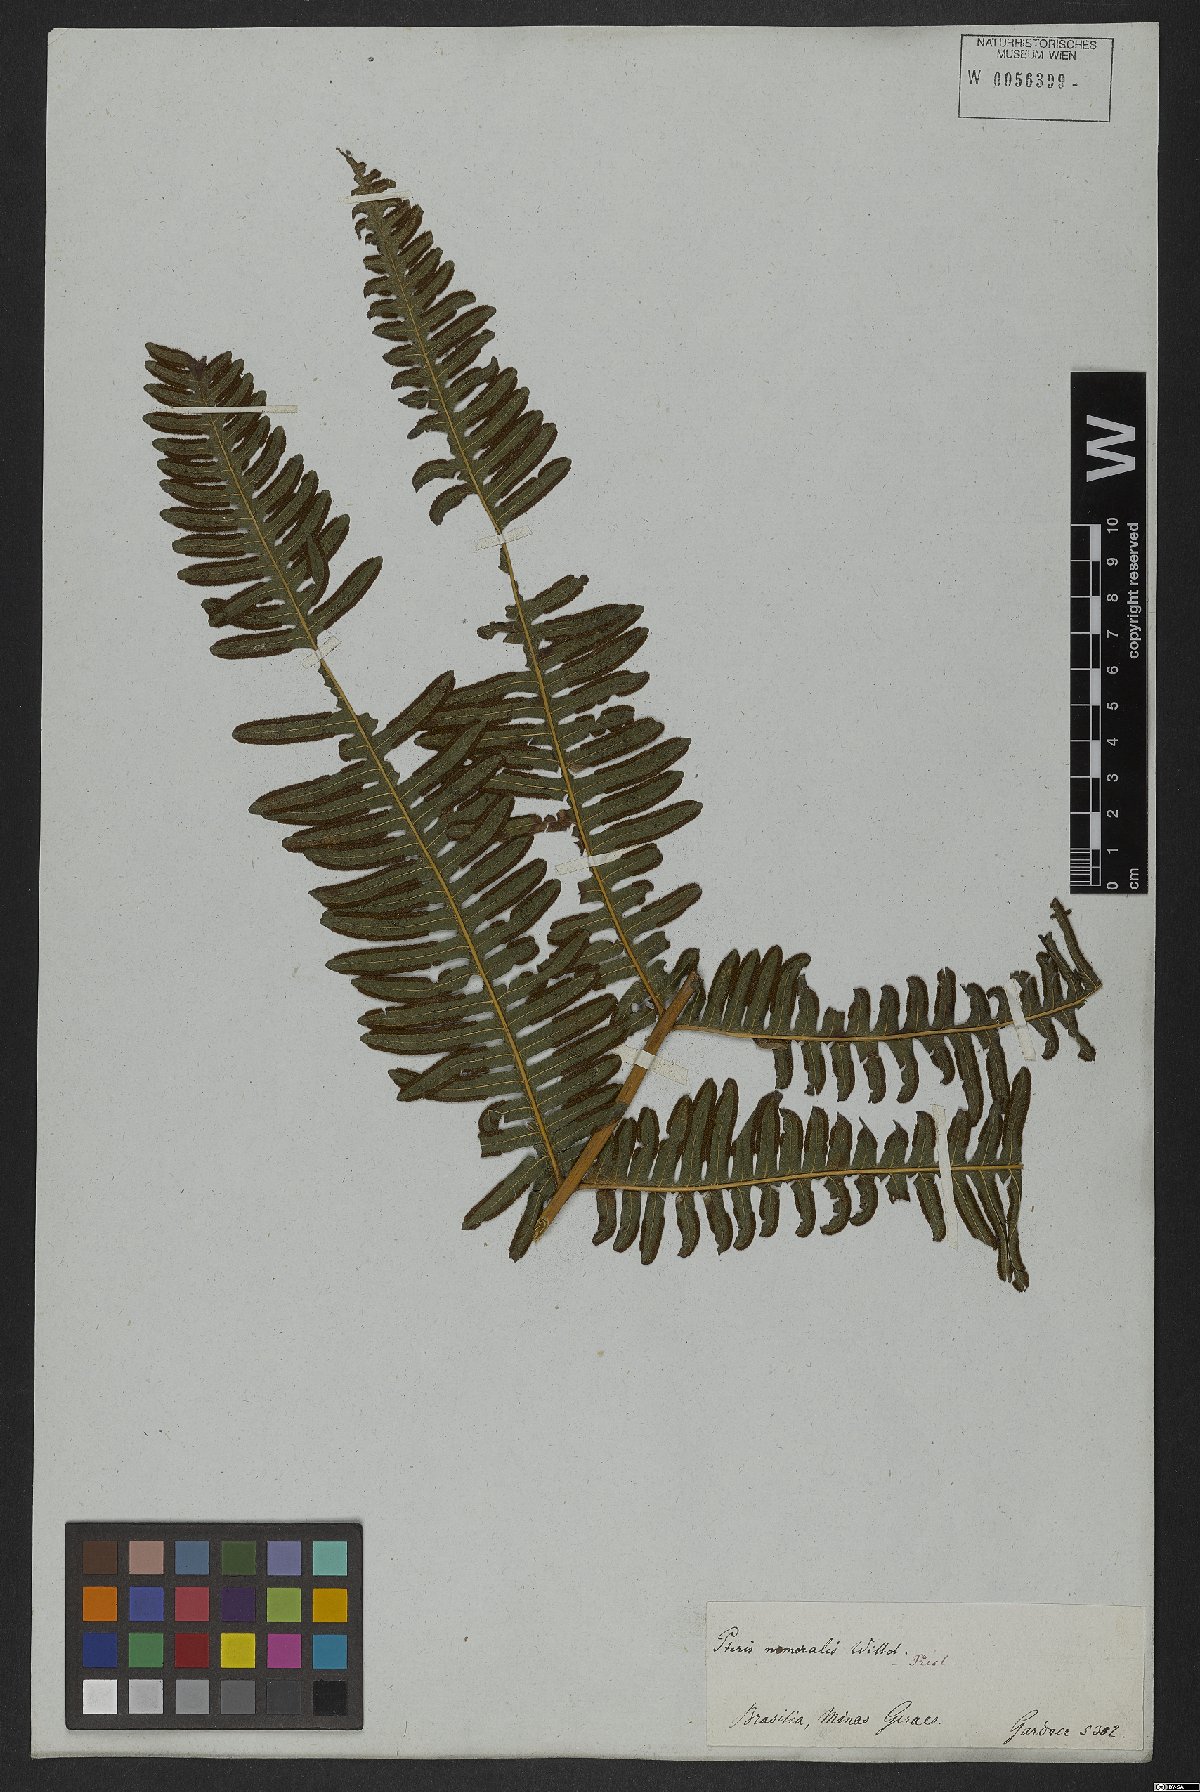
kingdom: Plantae
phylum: Tracheophyta
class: Polypodiopsida
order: Polypodiales
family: Pteridaceae
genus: Pteris
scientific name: Pteris biaurita
